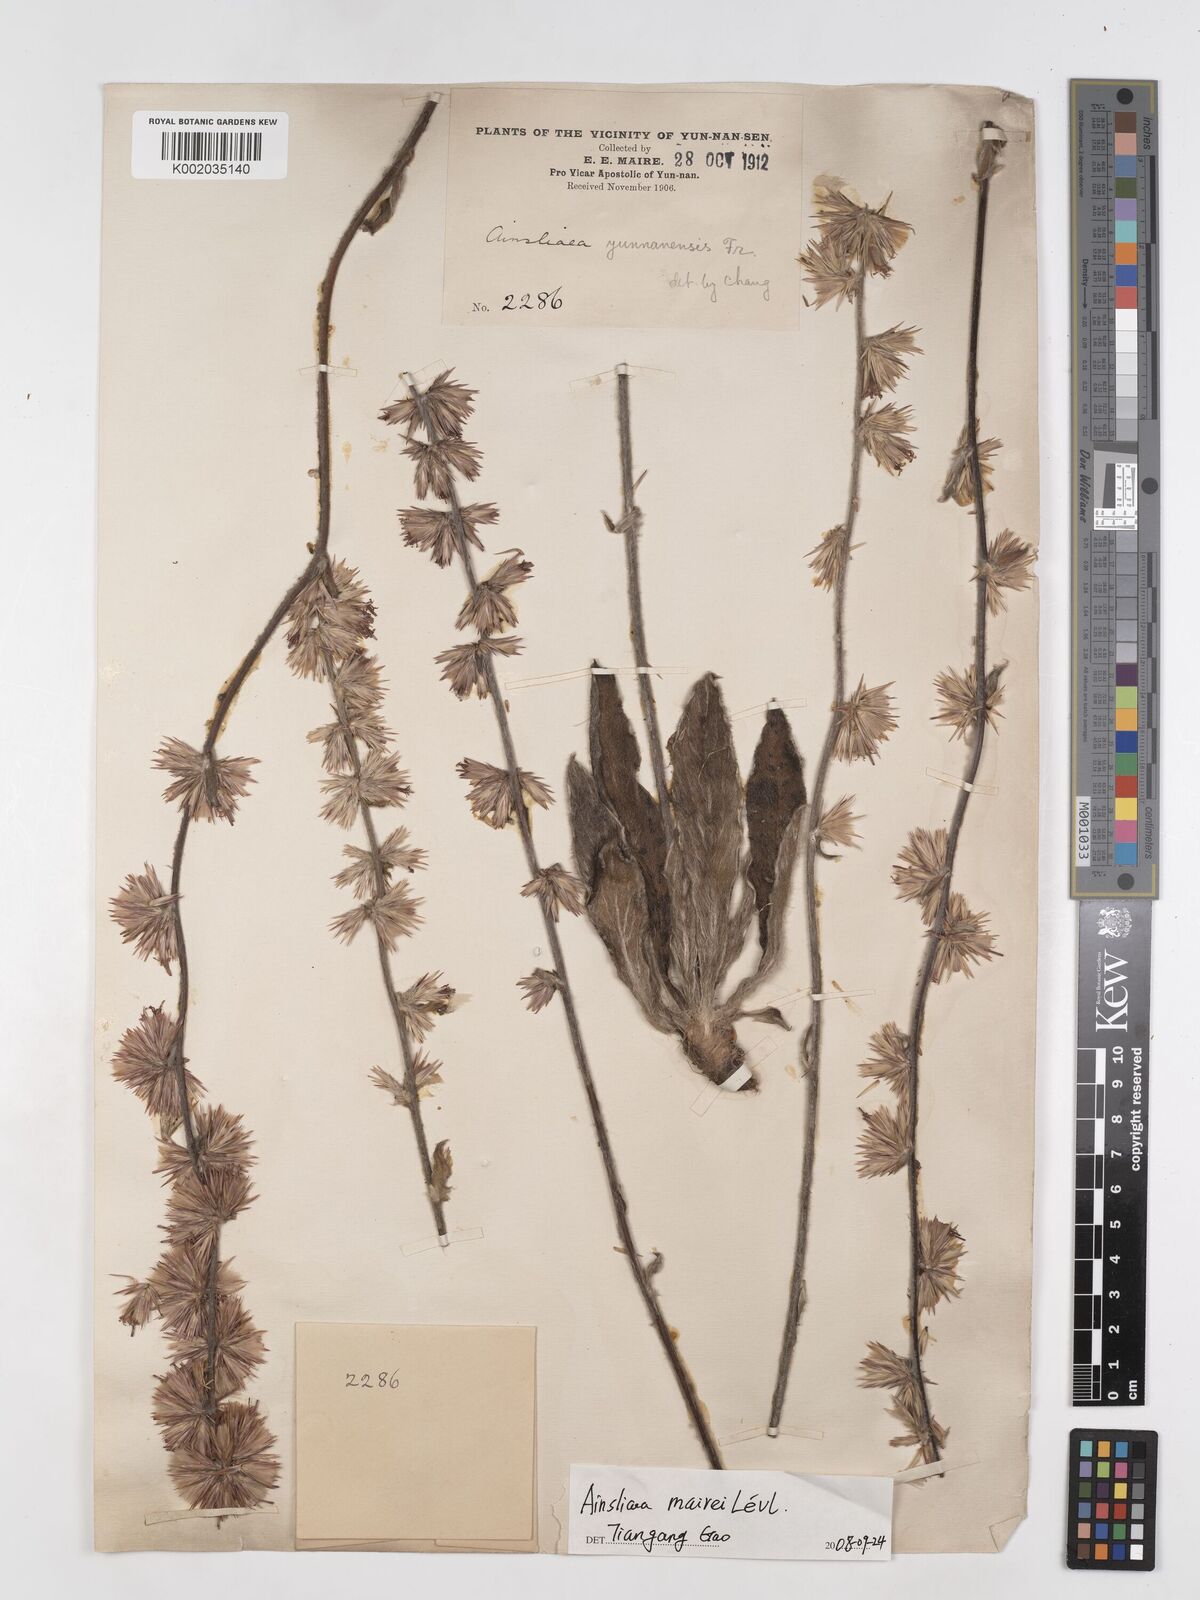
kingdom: Plantae
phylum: Tracheophyta
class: Magnoliopsida
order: Asterales
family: Asteraceae
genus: Ainsliaea
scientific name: Ainsliaea mairei
